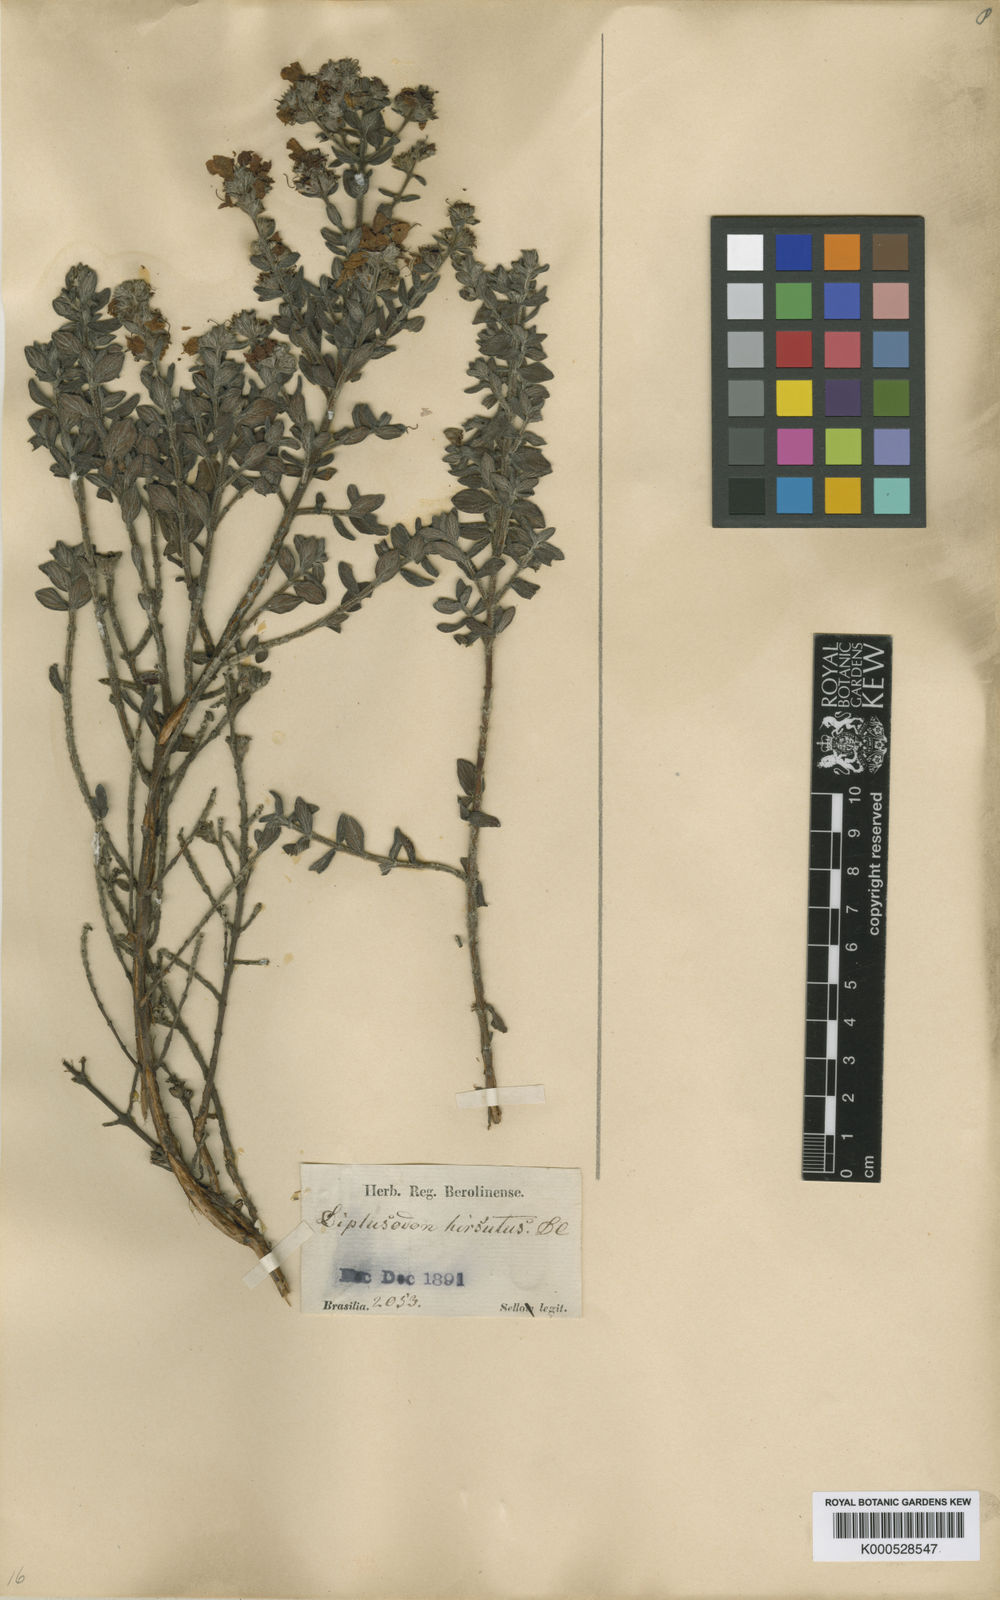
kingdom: Plantae
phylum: Tracheophyta
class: Magnoliopsida
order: Myrtales
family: Lythraceae
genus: Diplusodon
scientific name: Diplusodon hirsutus
